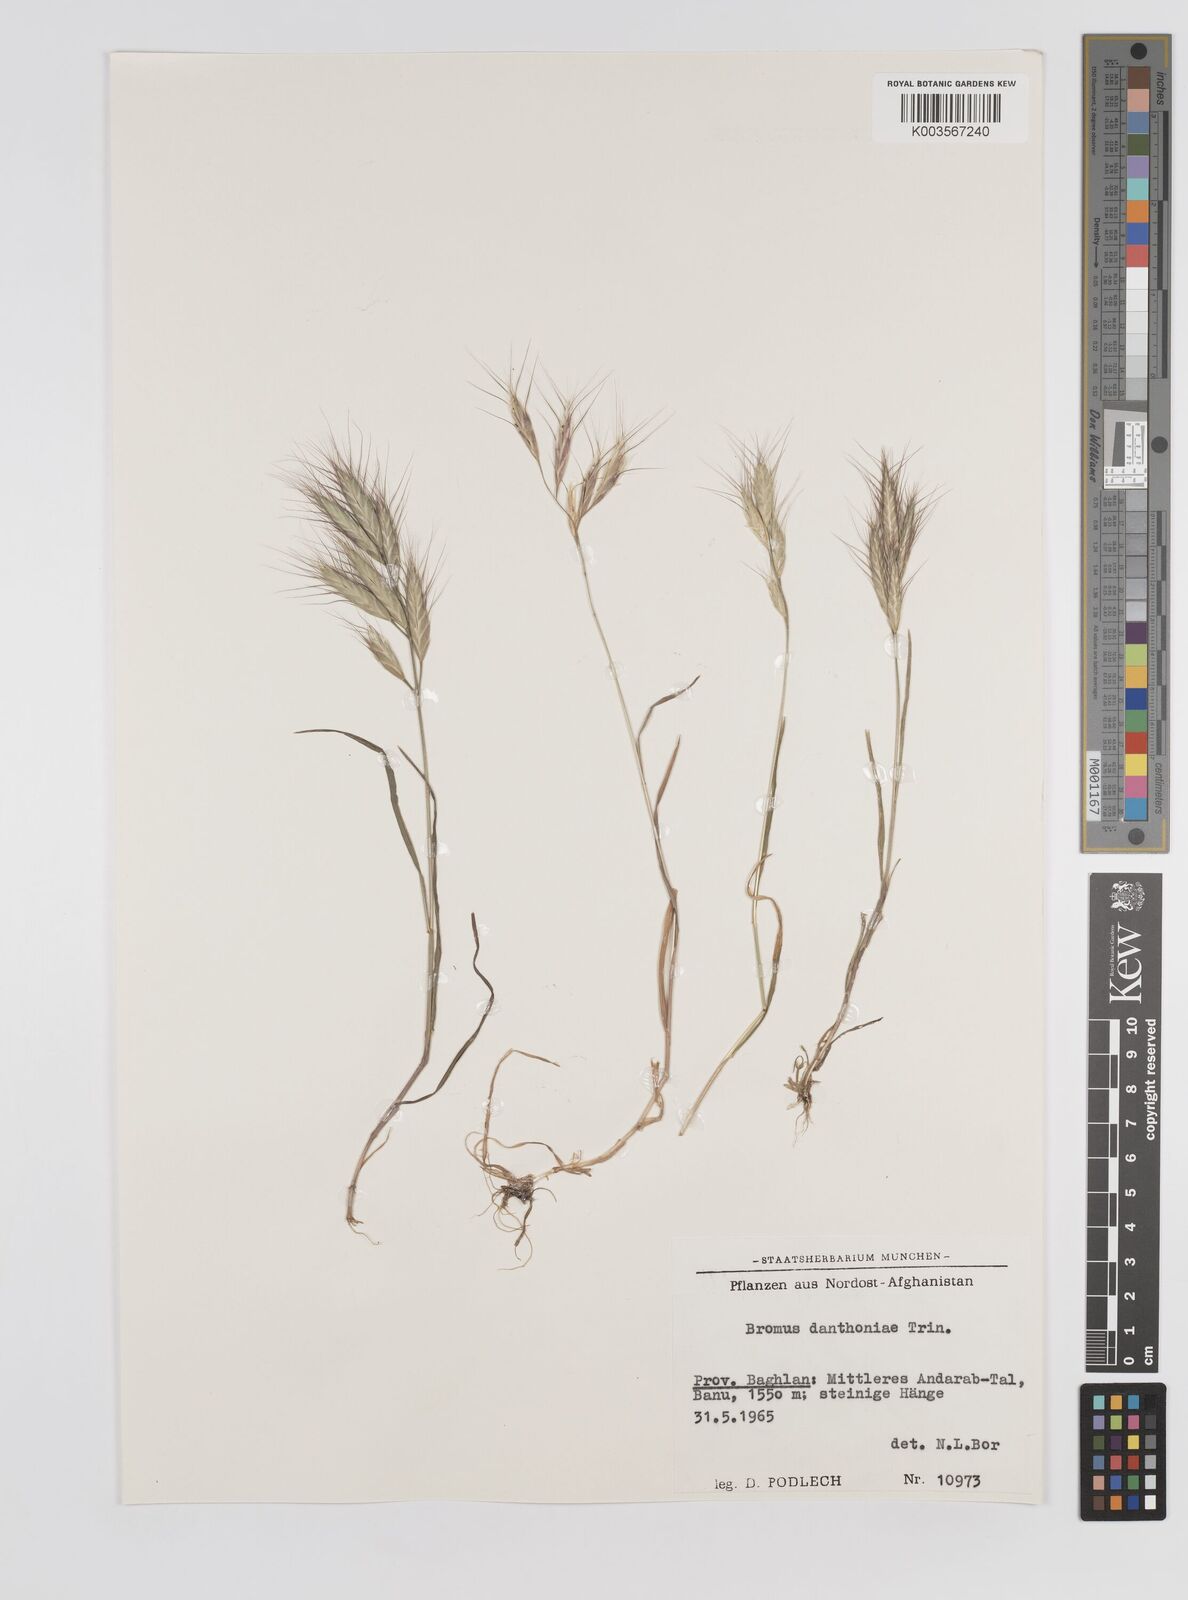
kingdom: Plantae
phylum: Tracheophyta
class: Liliopsida
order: Poales
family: Poaceae
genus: Bromus
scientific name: Bromus danthoniae
